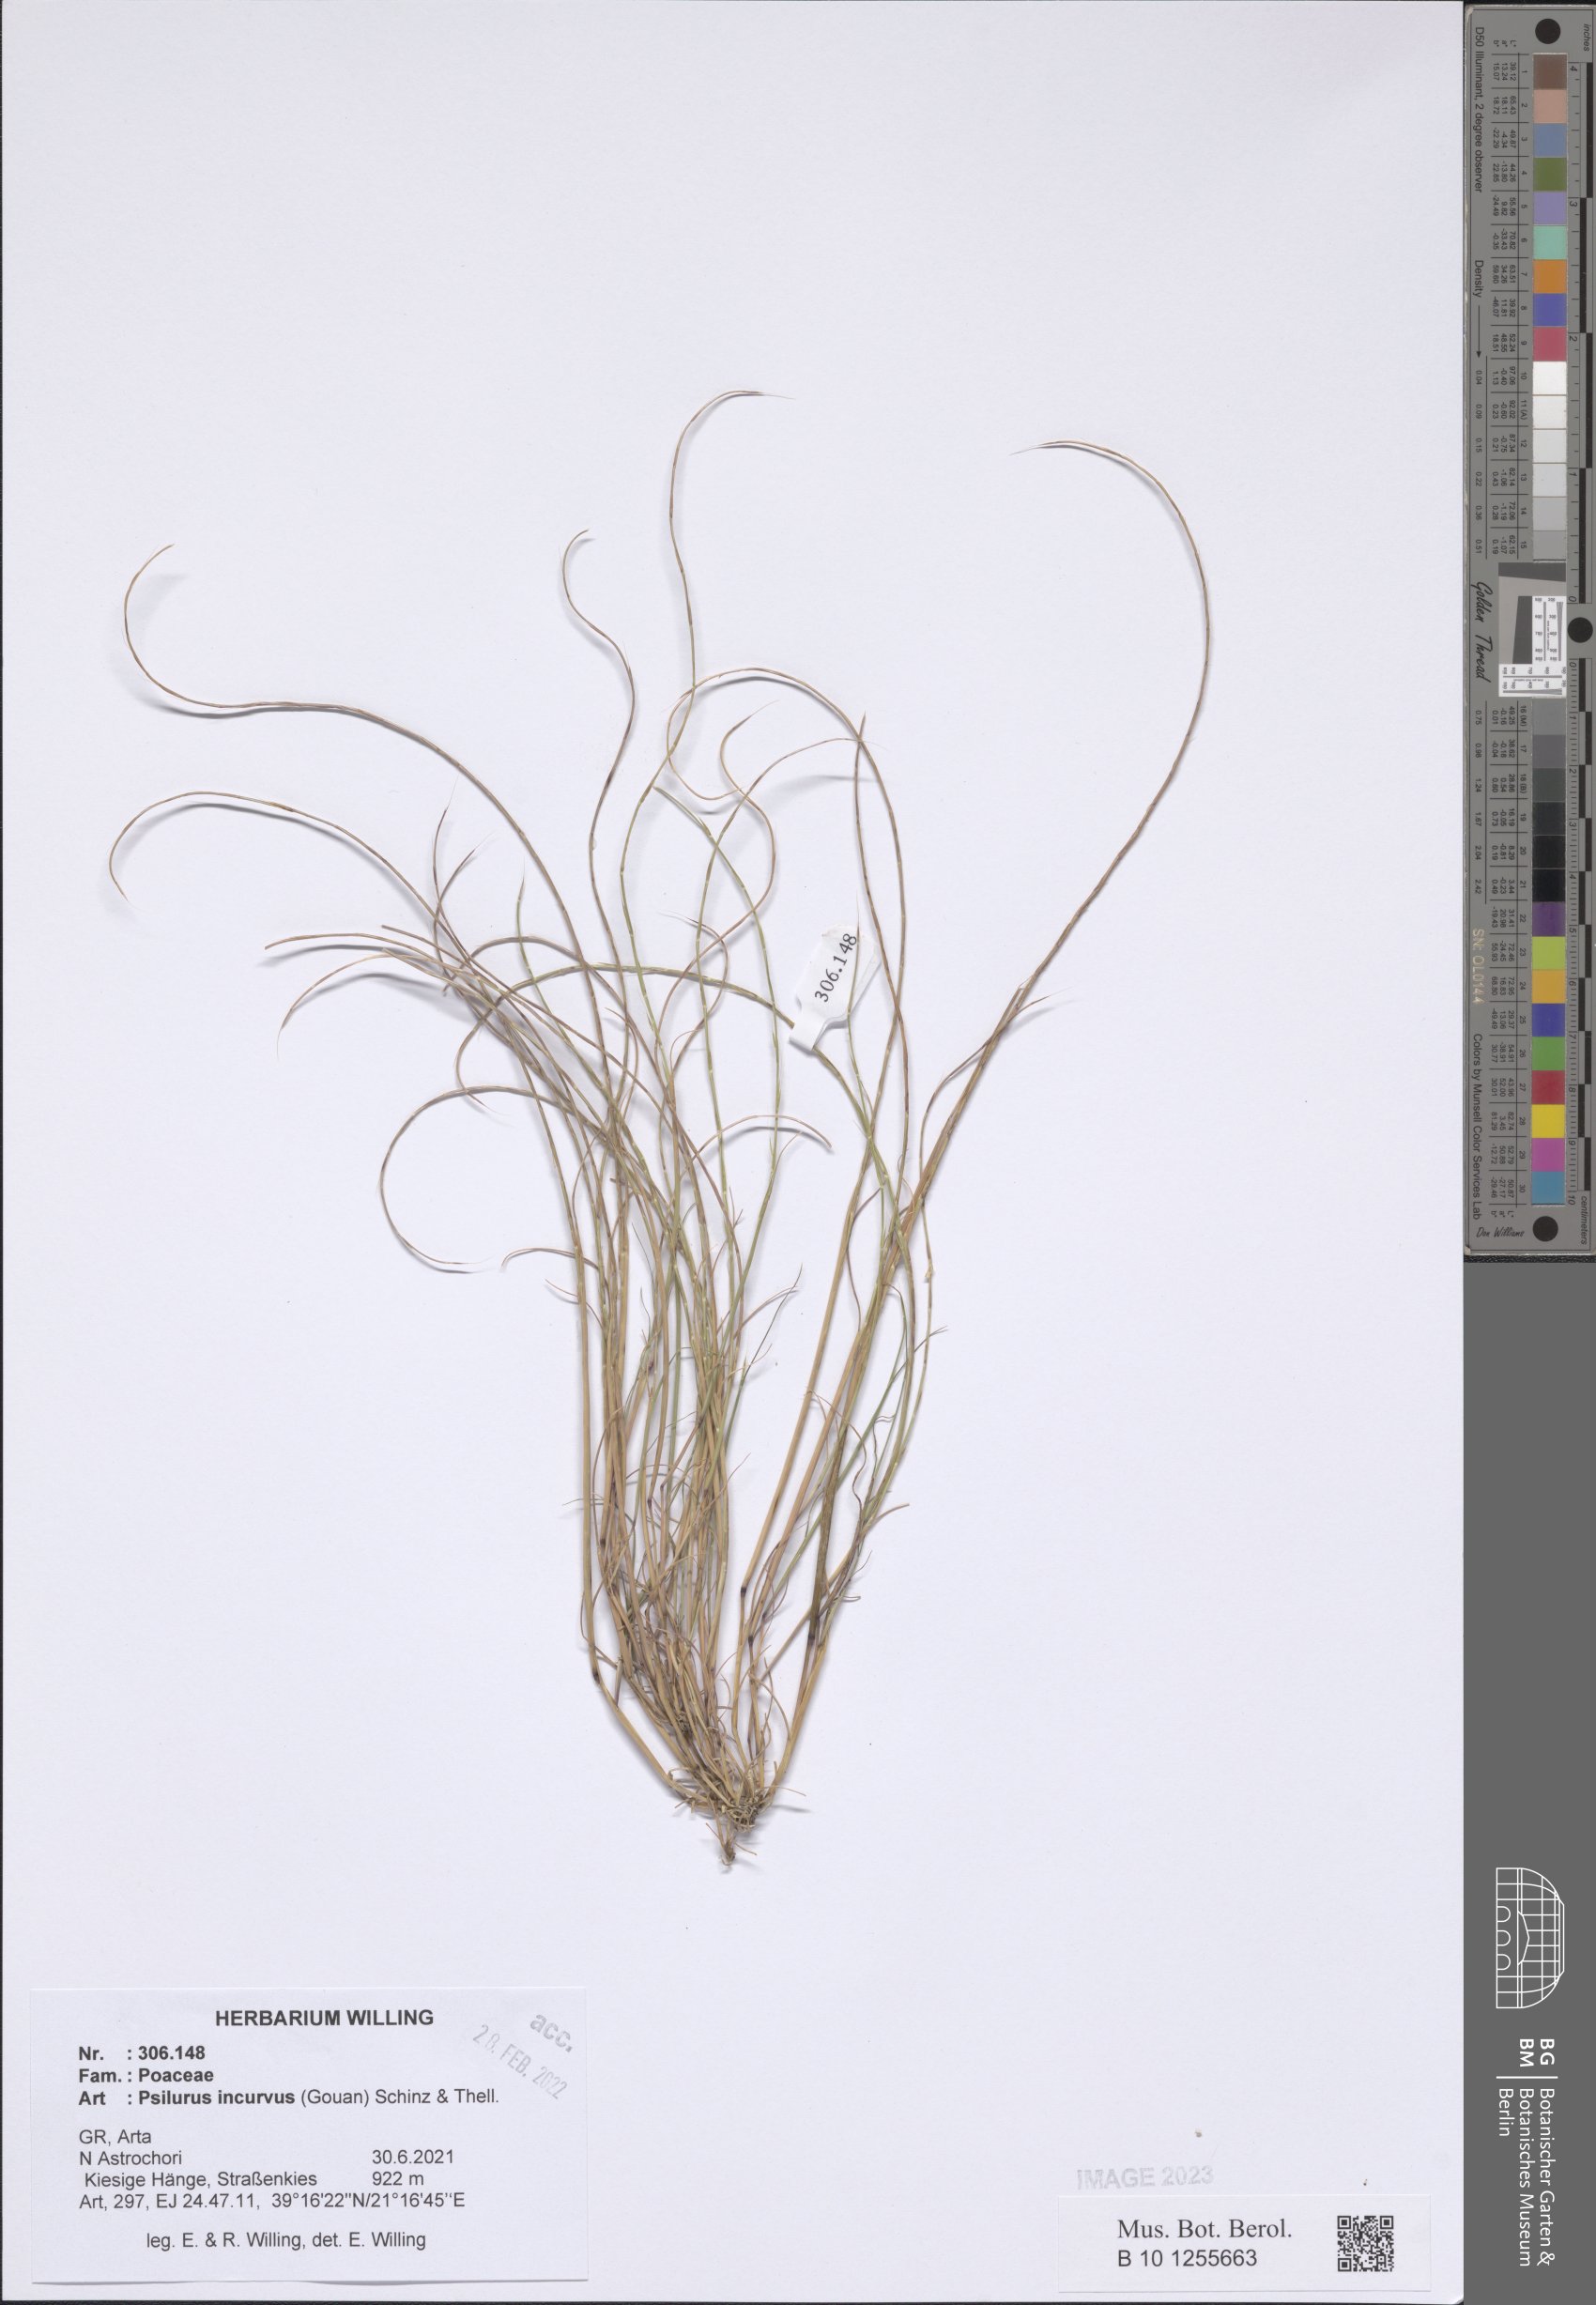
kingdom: Plantae
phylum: Tracheophyta
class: Liliopsida
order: Poales
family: Poaceae
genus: Festuca
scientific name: Festuca incurva
